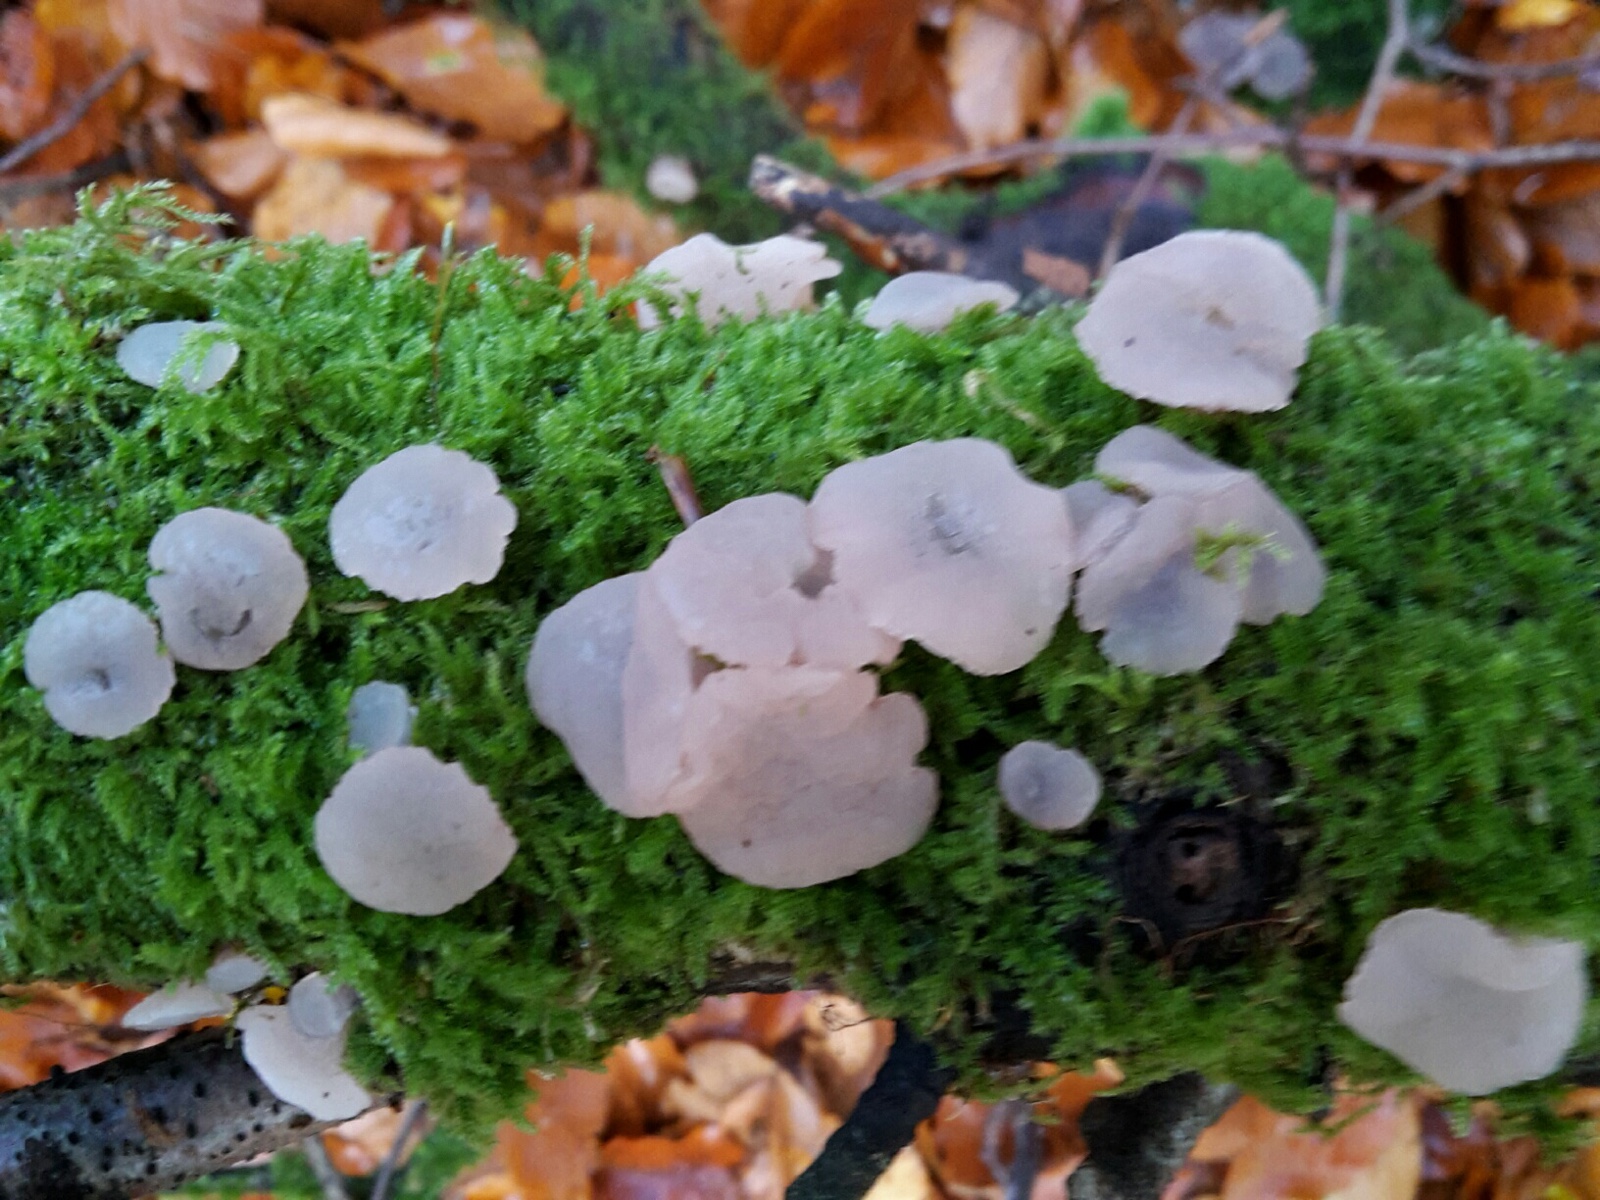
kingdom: Fungi
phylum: Ascomycota
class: Leotiomycetes
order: Helotiales
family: Gelatinodiscaceae
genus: Neobulgaria
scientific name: Neobulgaria pura
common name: bleg bævreskive
